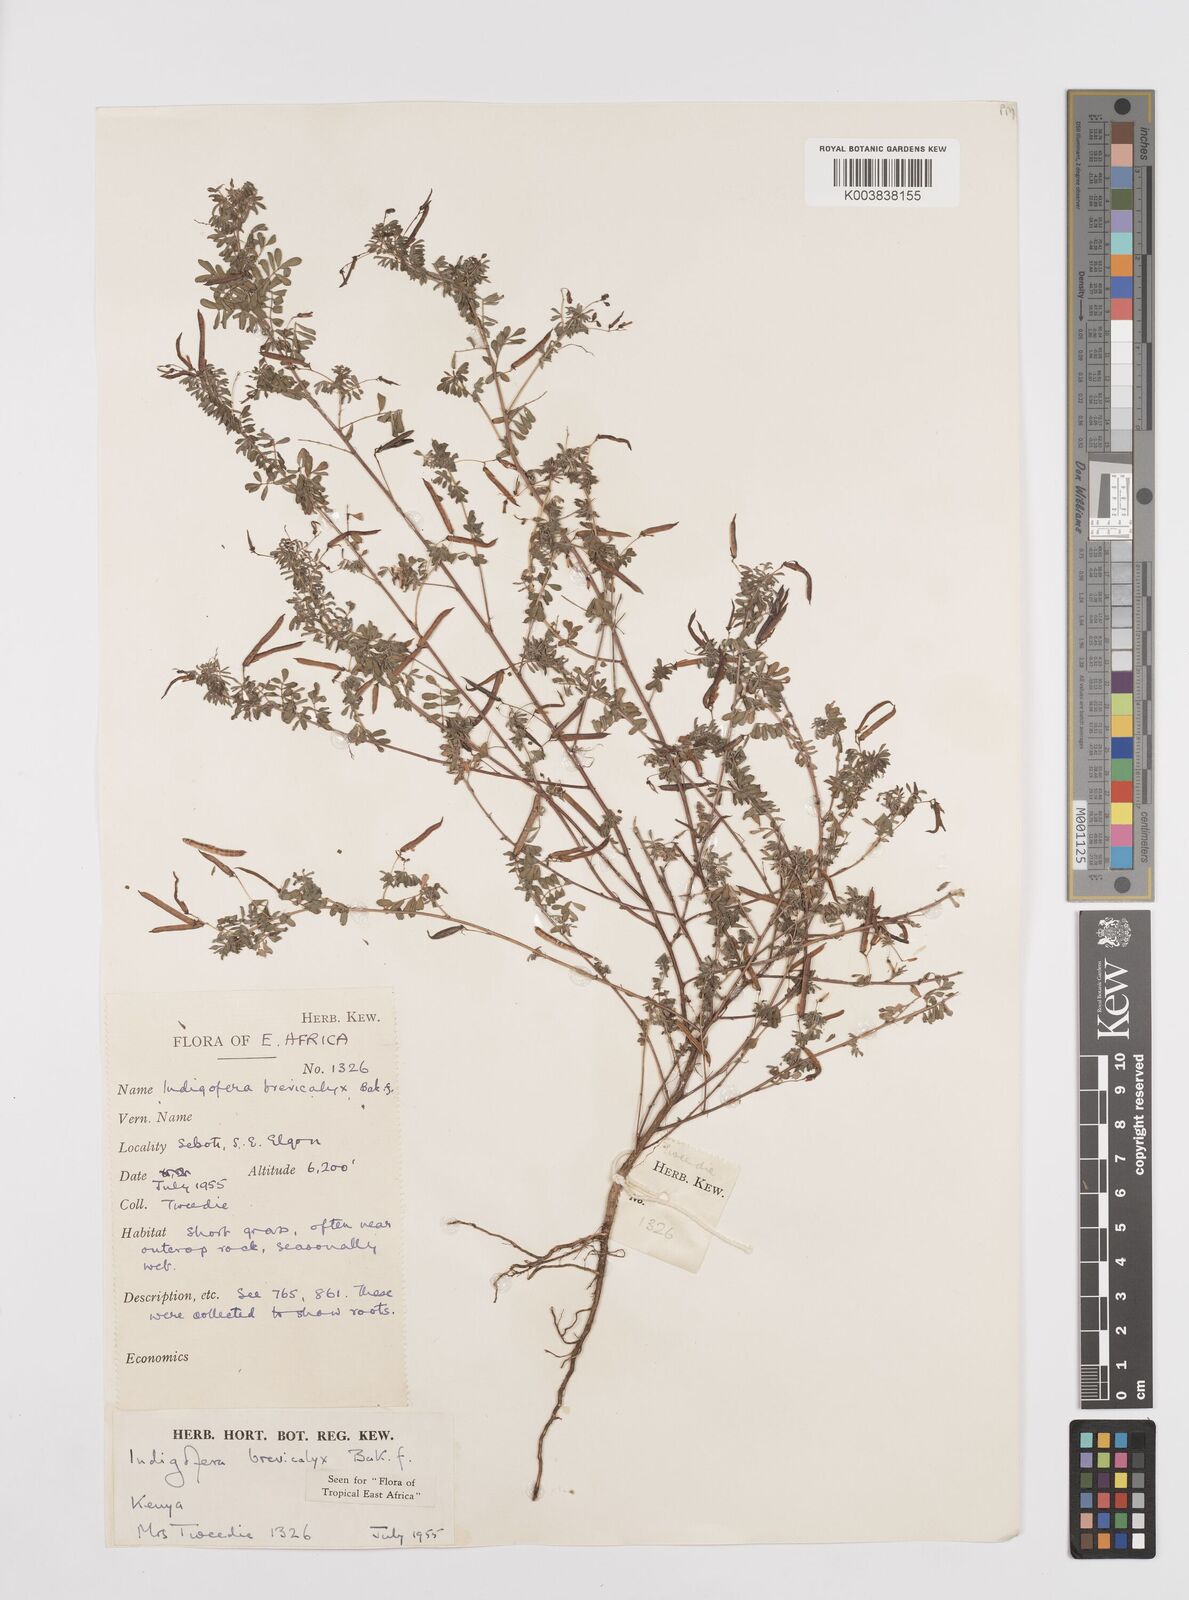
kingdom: Plantae
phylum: Tracheophyta
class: Magnoliopsida
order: Fabales
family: Fabaceae
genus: Indigofera
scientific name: Indigofera brevicalyx
